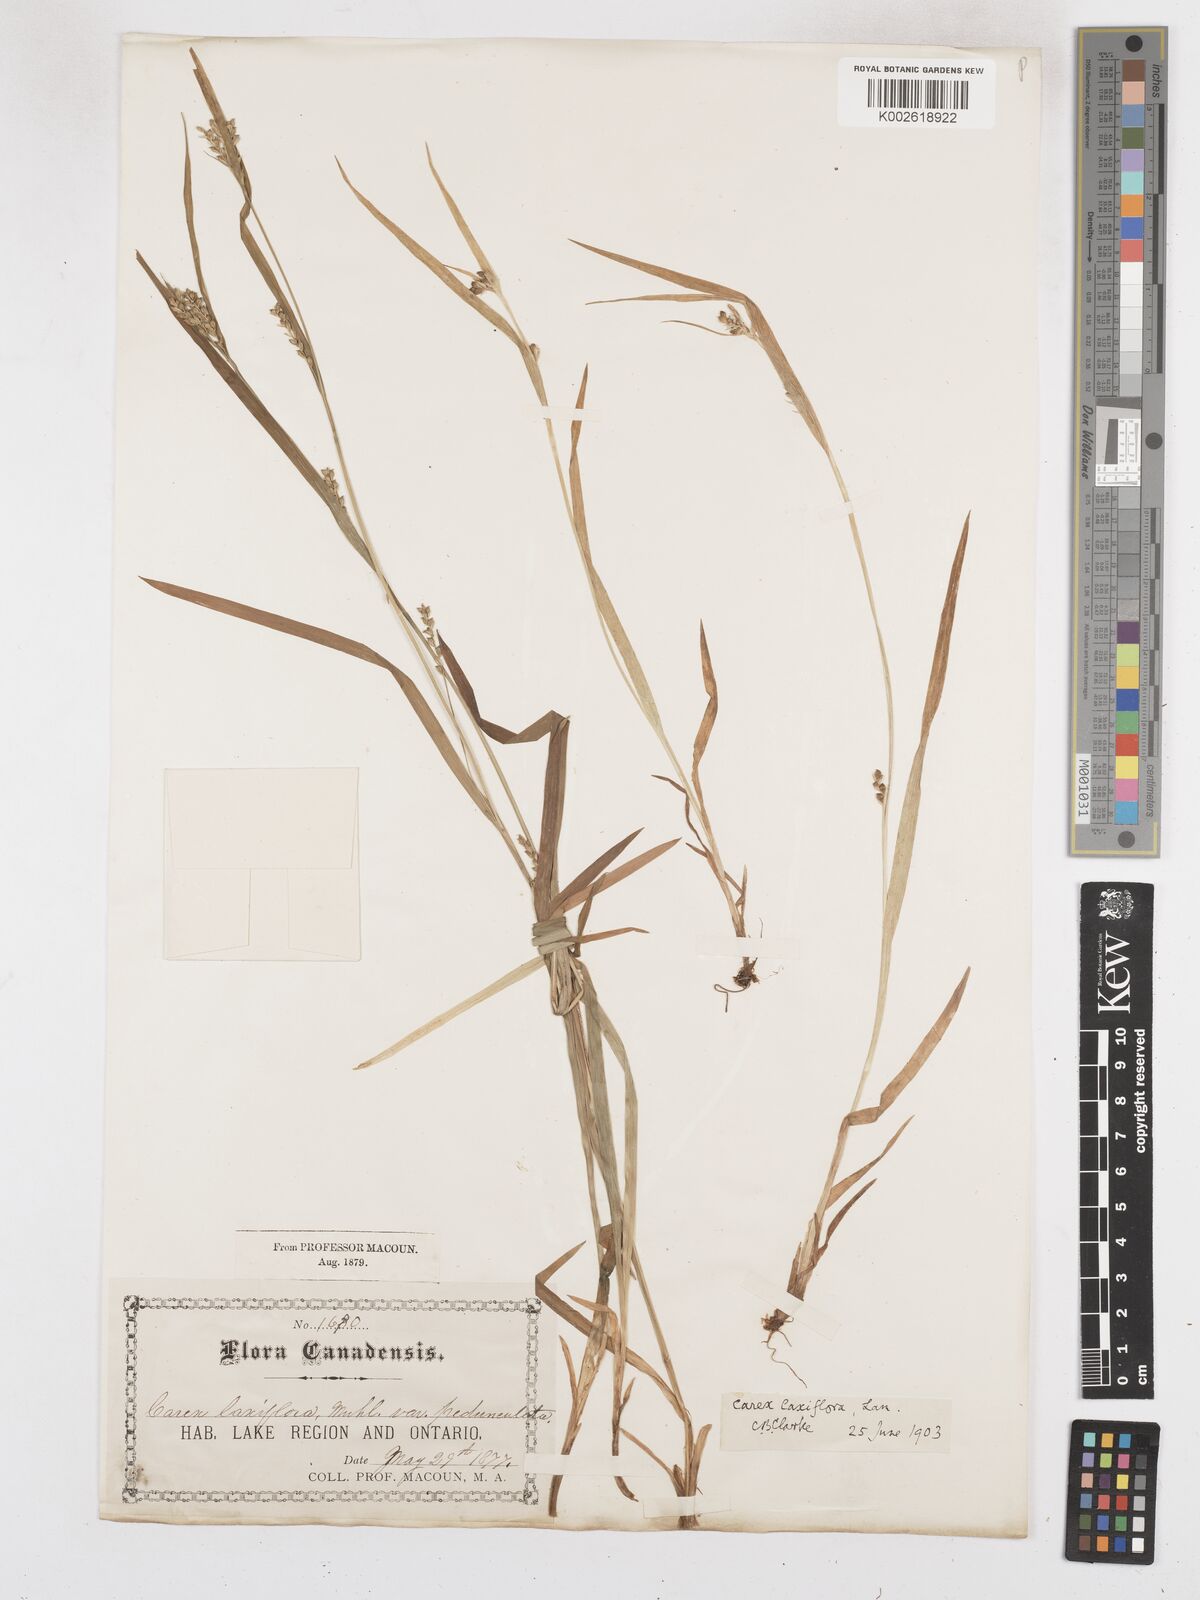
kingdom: Plantae
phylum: Tracheophyta
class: Liliopsida
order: Poales
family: Cyperaceae
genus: Carex
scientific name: Carex laxiflora
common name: Beech wood sedge
